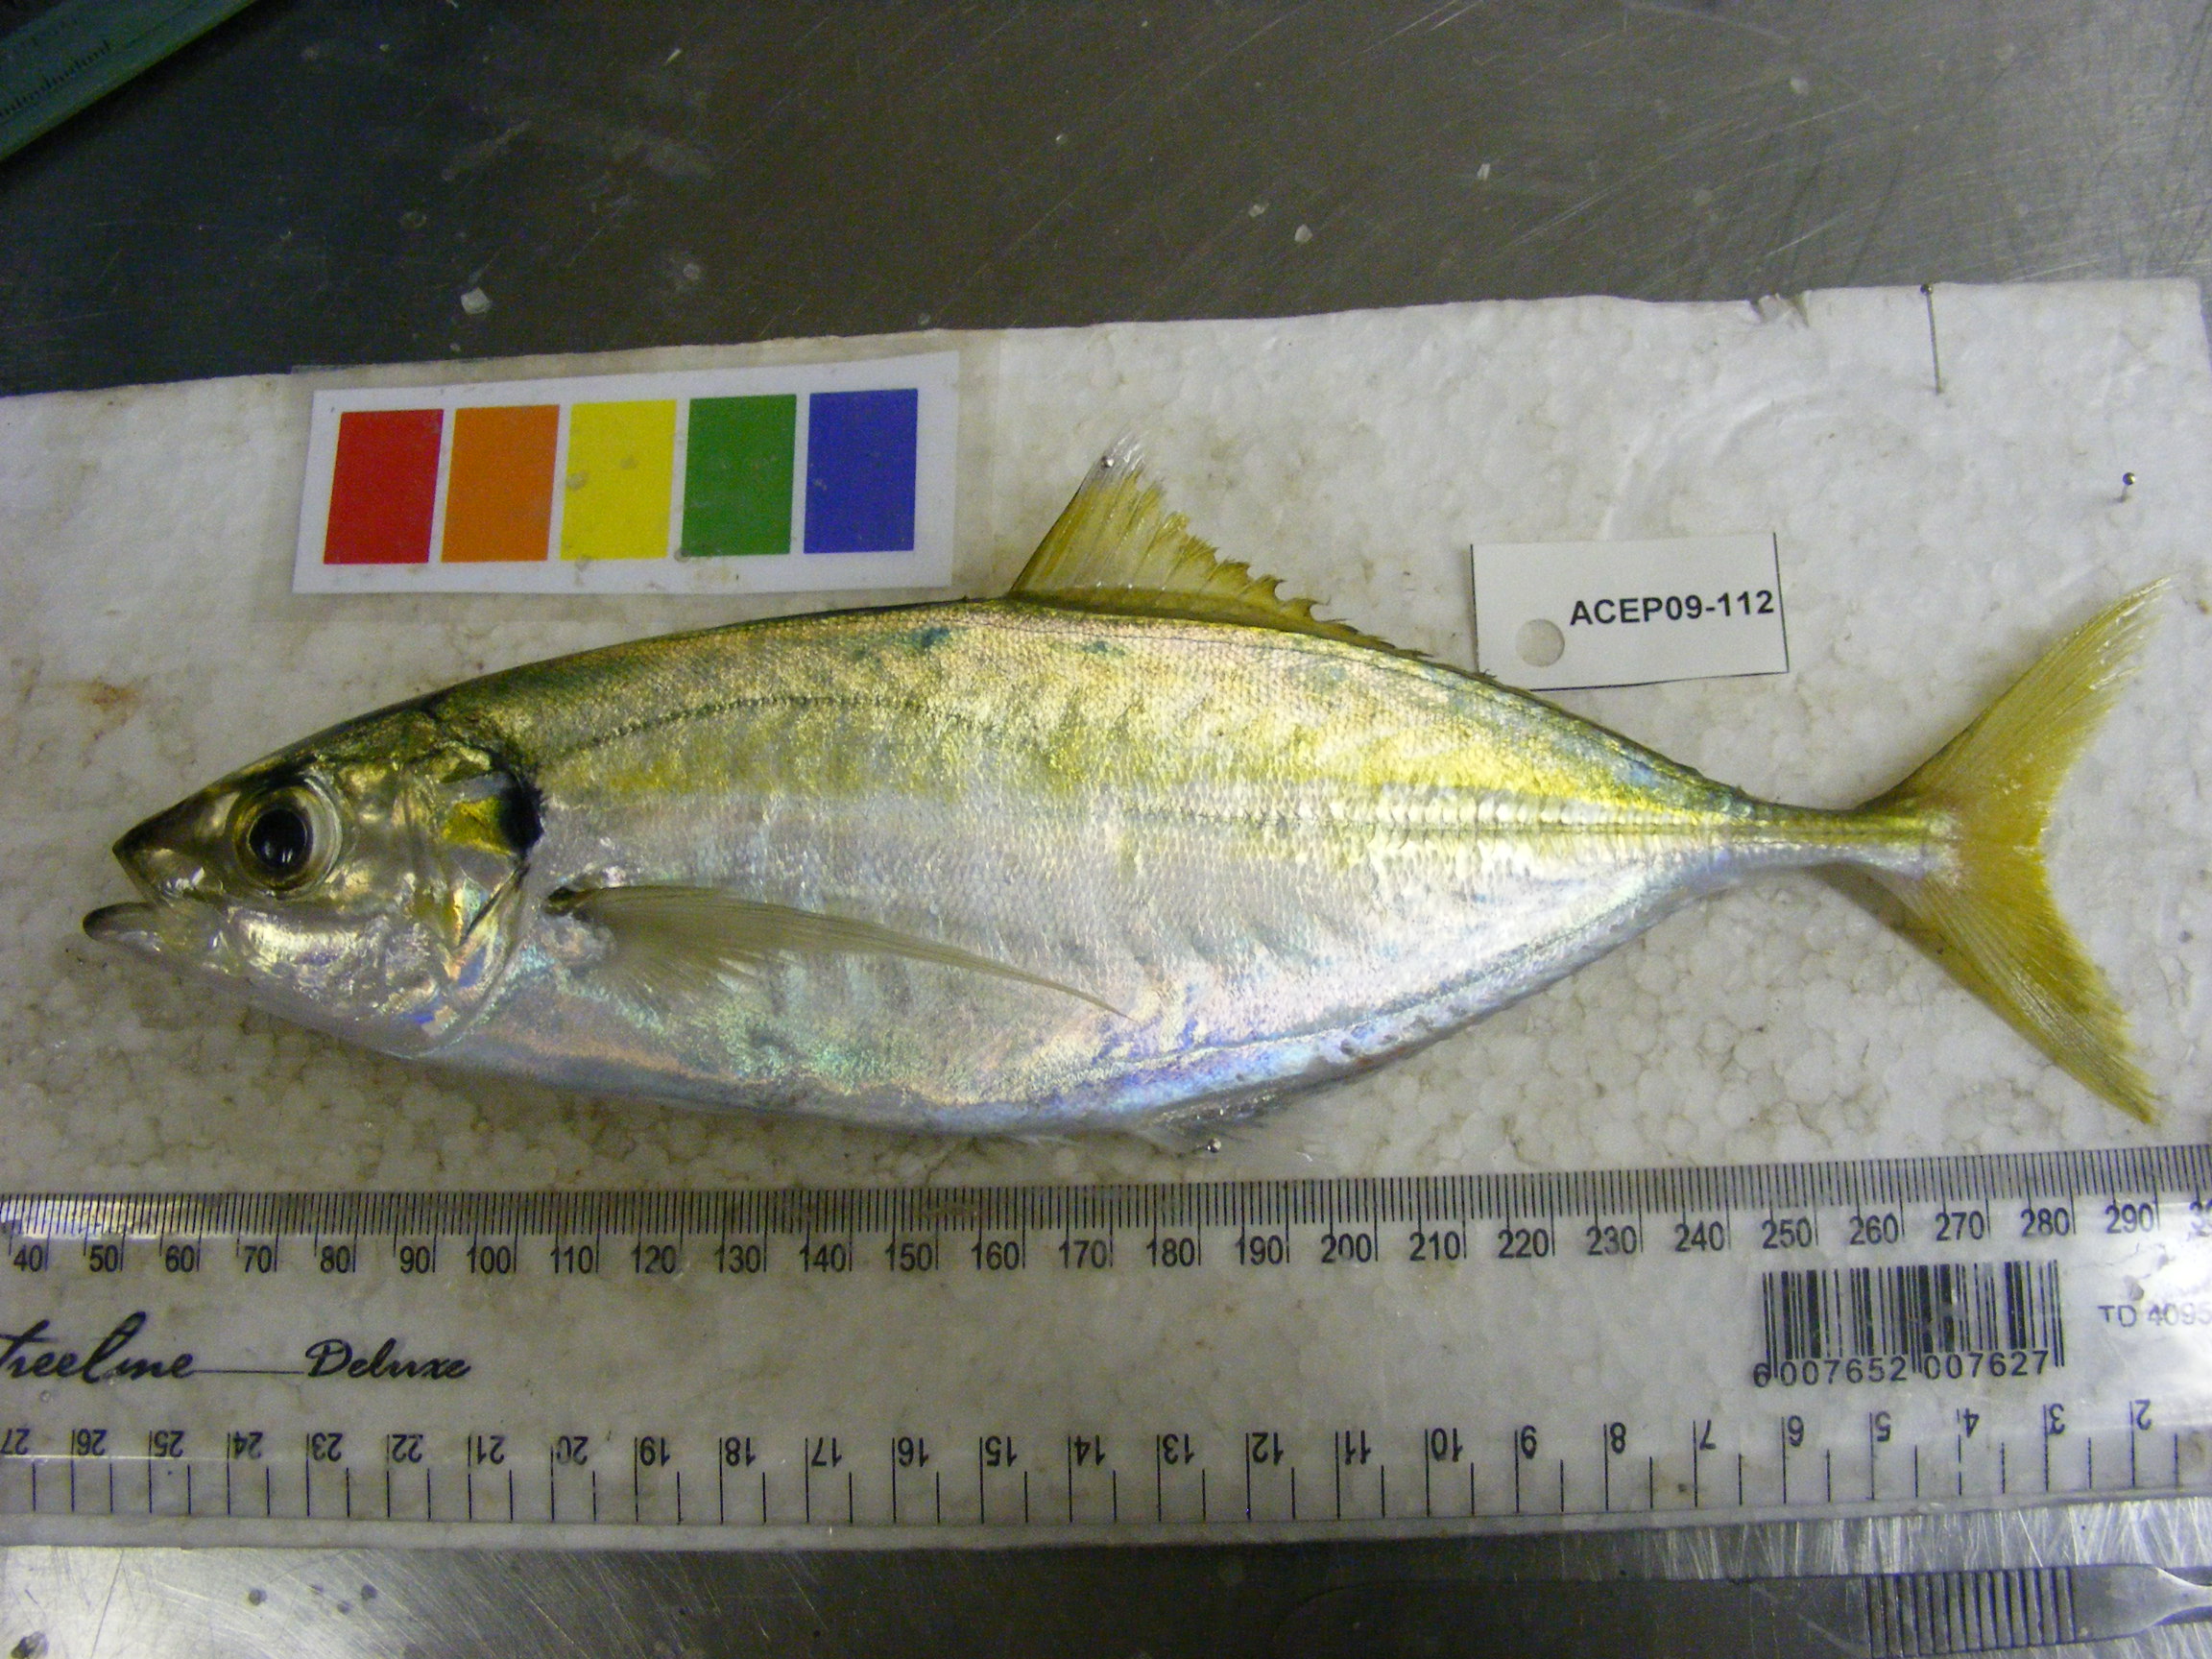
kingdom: Animalia
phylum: Chordata
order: Perciformes
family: Carangidae
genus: Decapterus
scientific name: Decapterus
